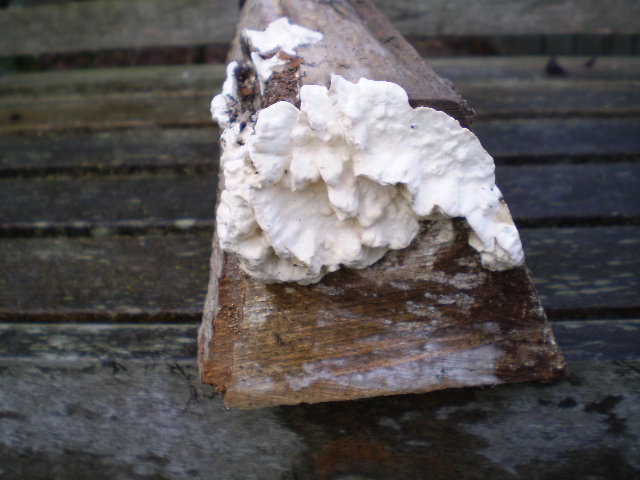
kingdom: Fungi
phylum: Basidiomycota
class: Agaricomycetes
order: Polyporales
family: Irpicaceae
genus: Byssomerulius
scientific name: Byssomerulius corium
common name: læder-åresvamp
